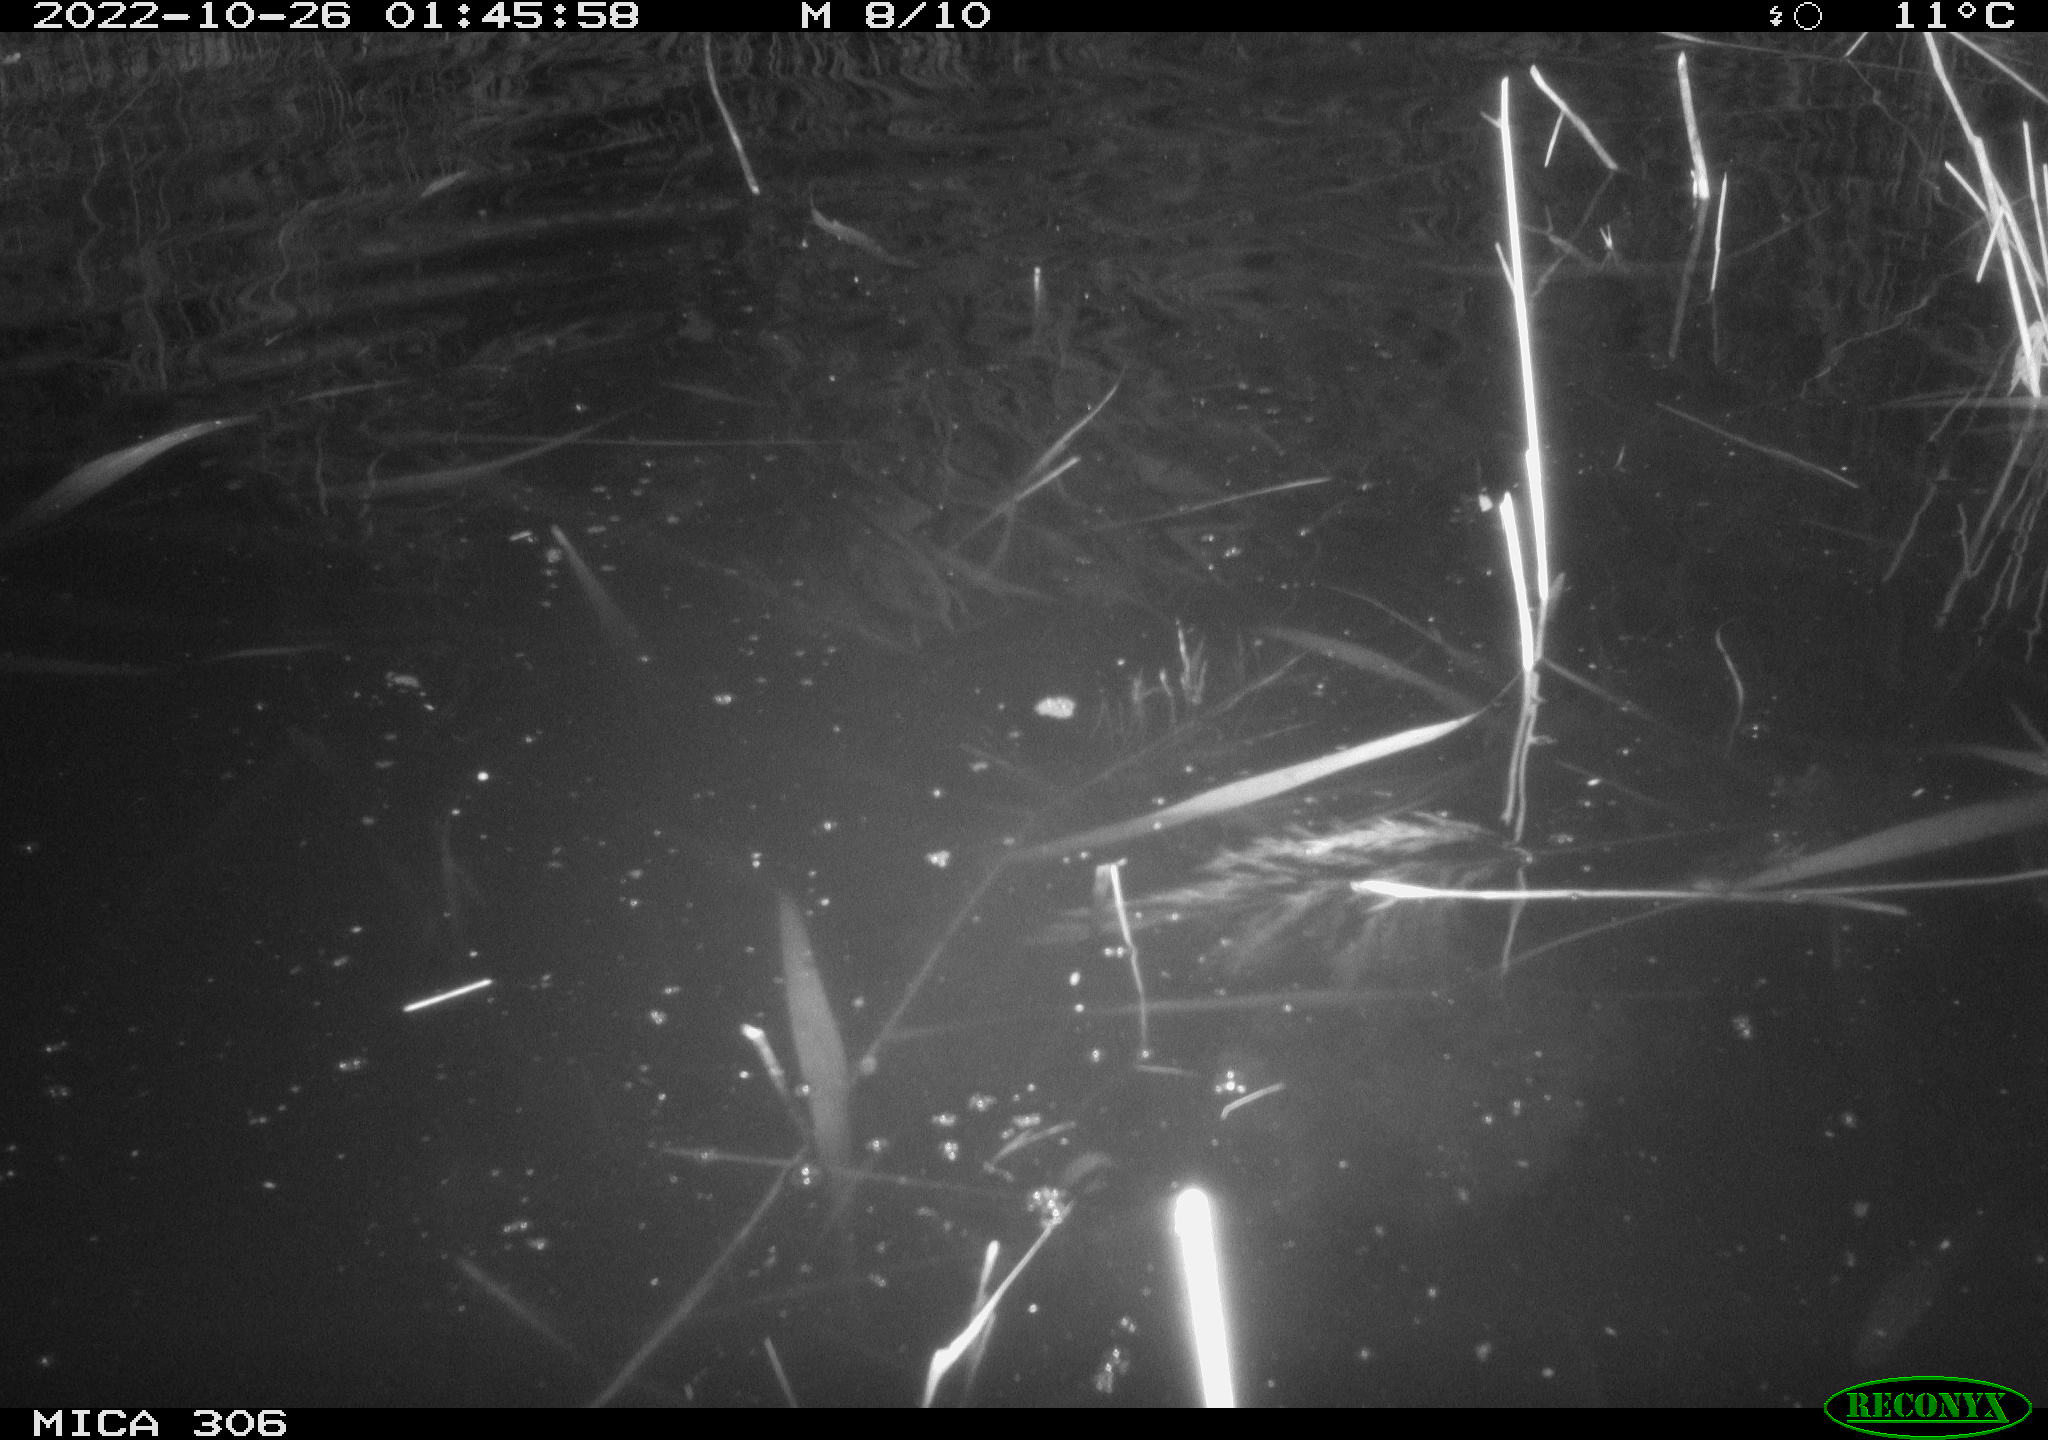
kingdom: Animalia
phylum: Chordata
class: Mammalia
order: Rodentia
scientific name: Rodentia
